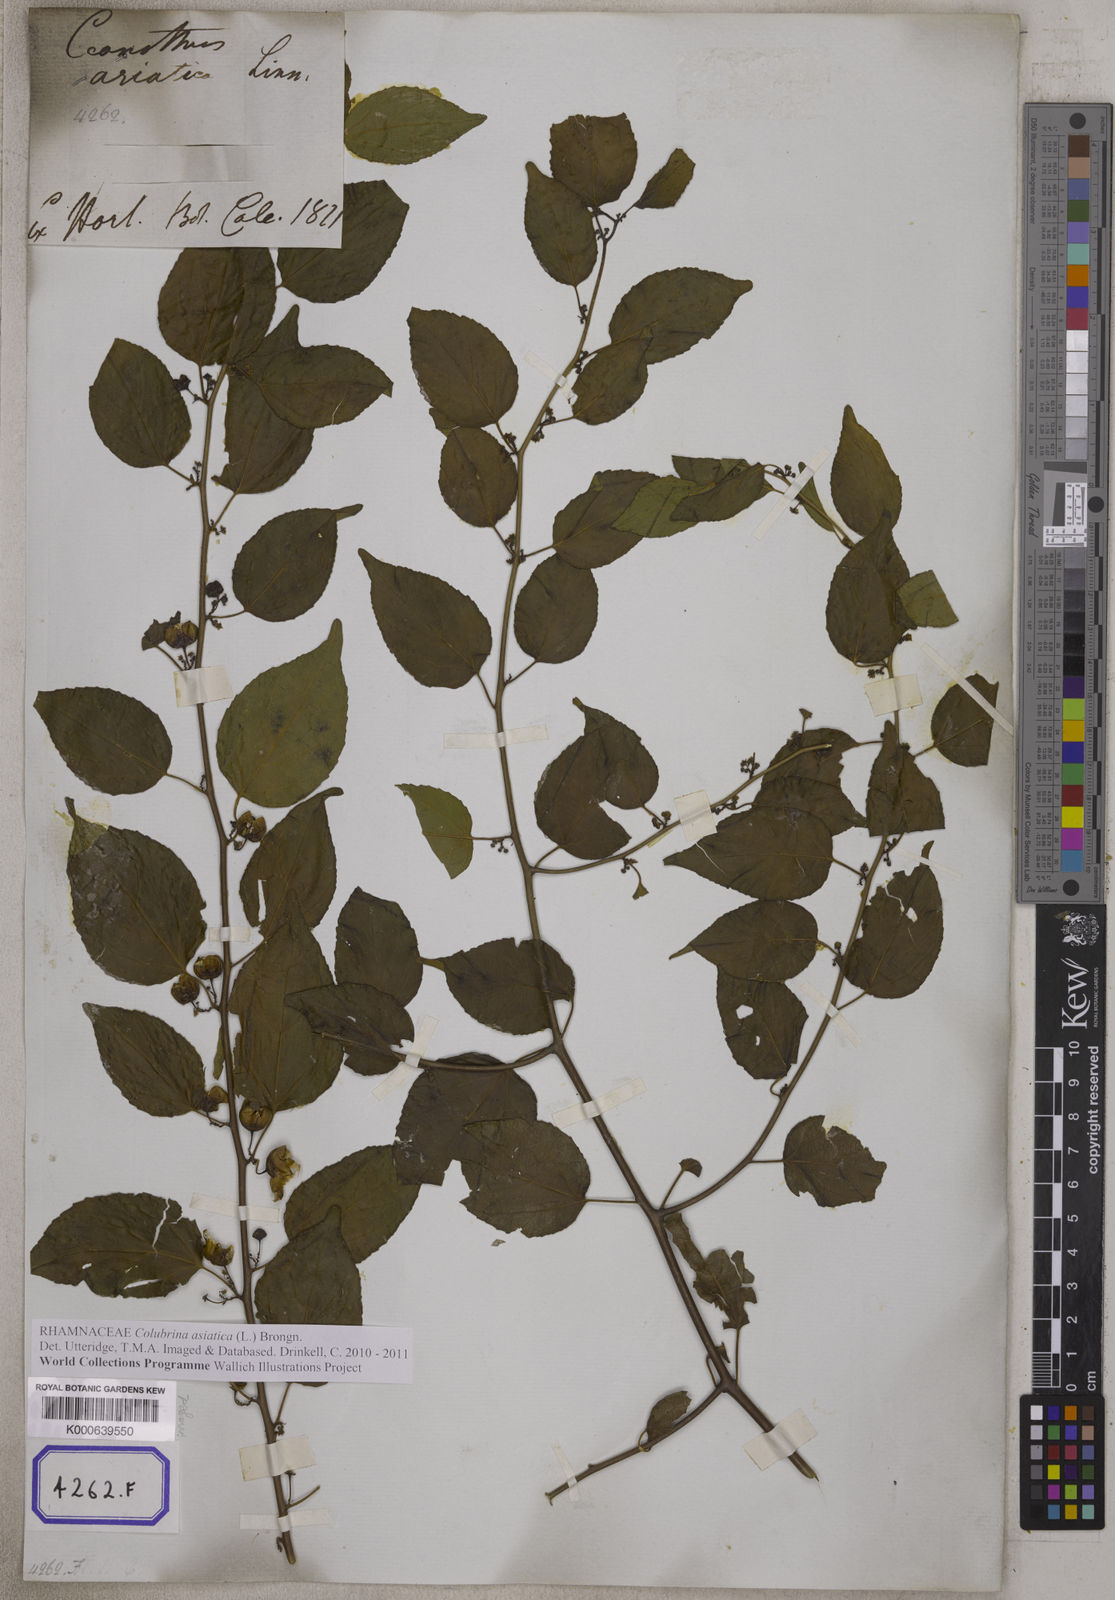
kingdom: Plantae
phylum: Tracheophyta
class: Magnoliopsida
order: Rosales
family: Rhamnaceae
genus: Colubrina
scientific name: Colubrina asiatica
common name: Asian nakedwood
